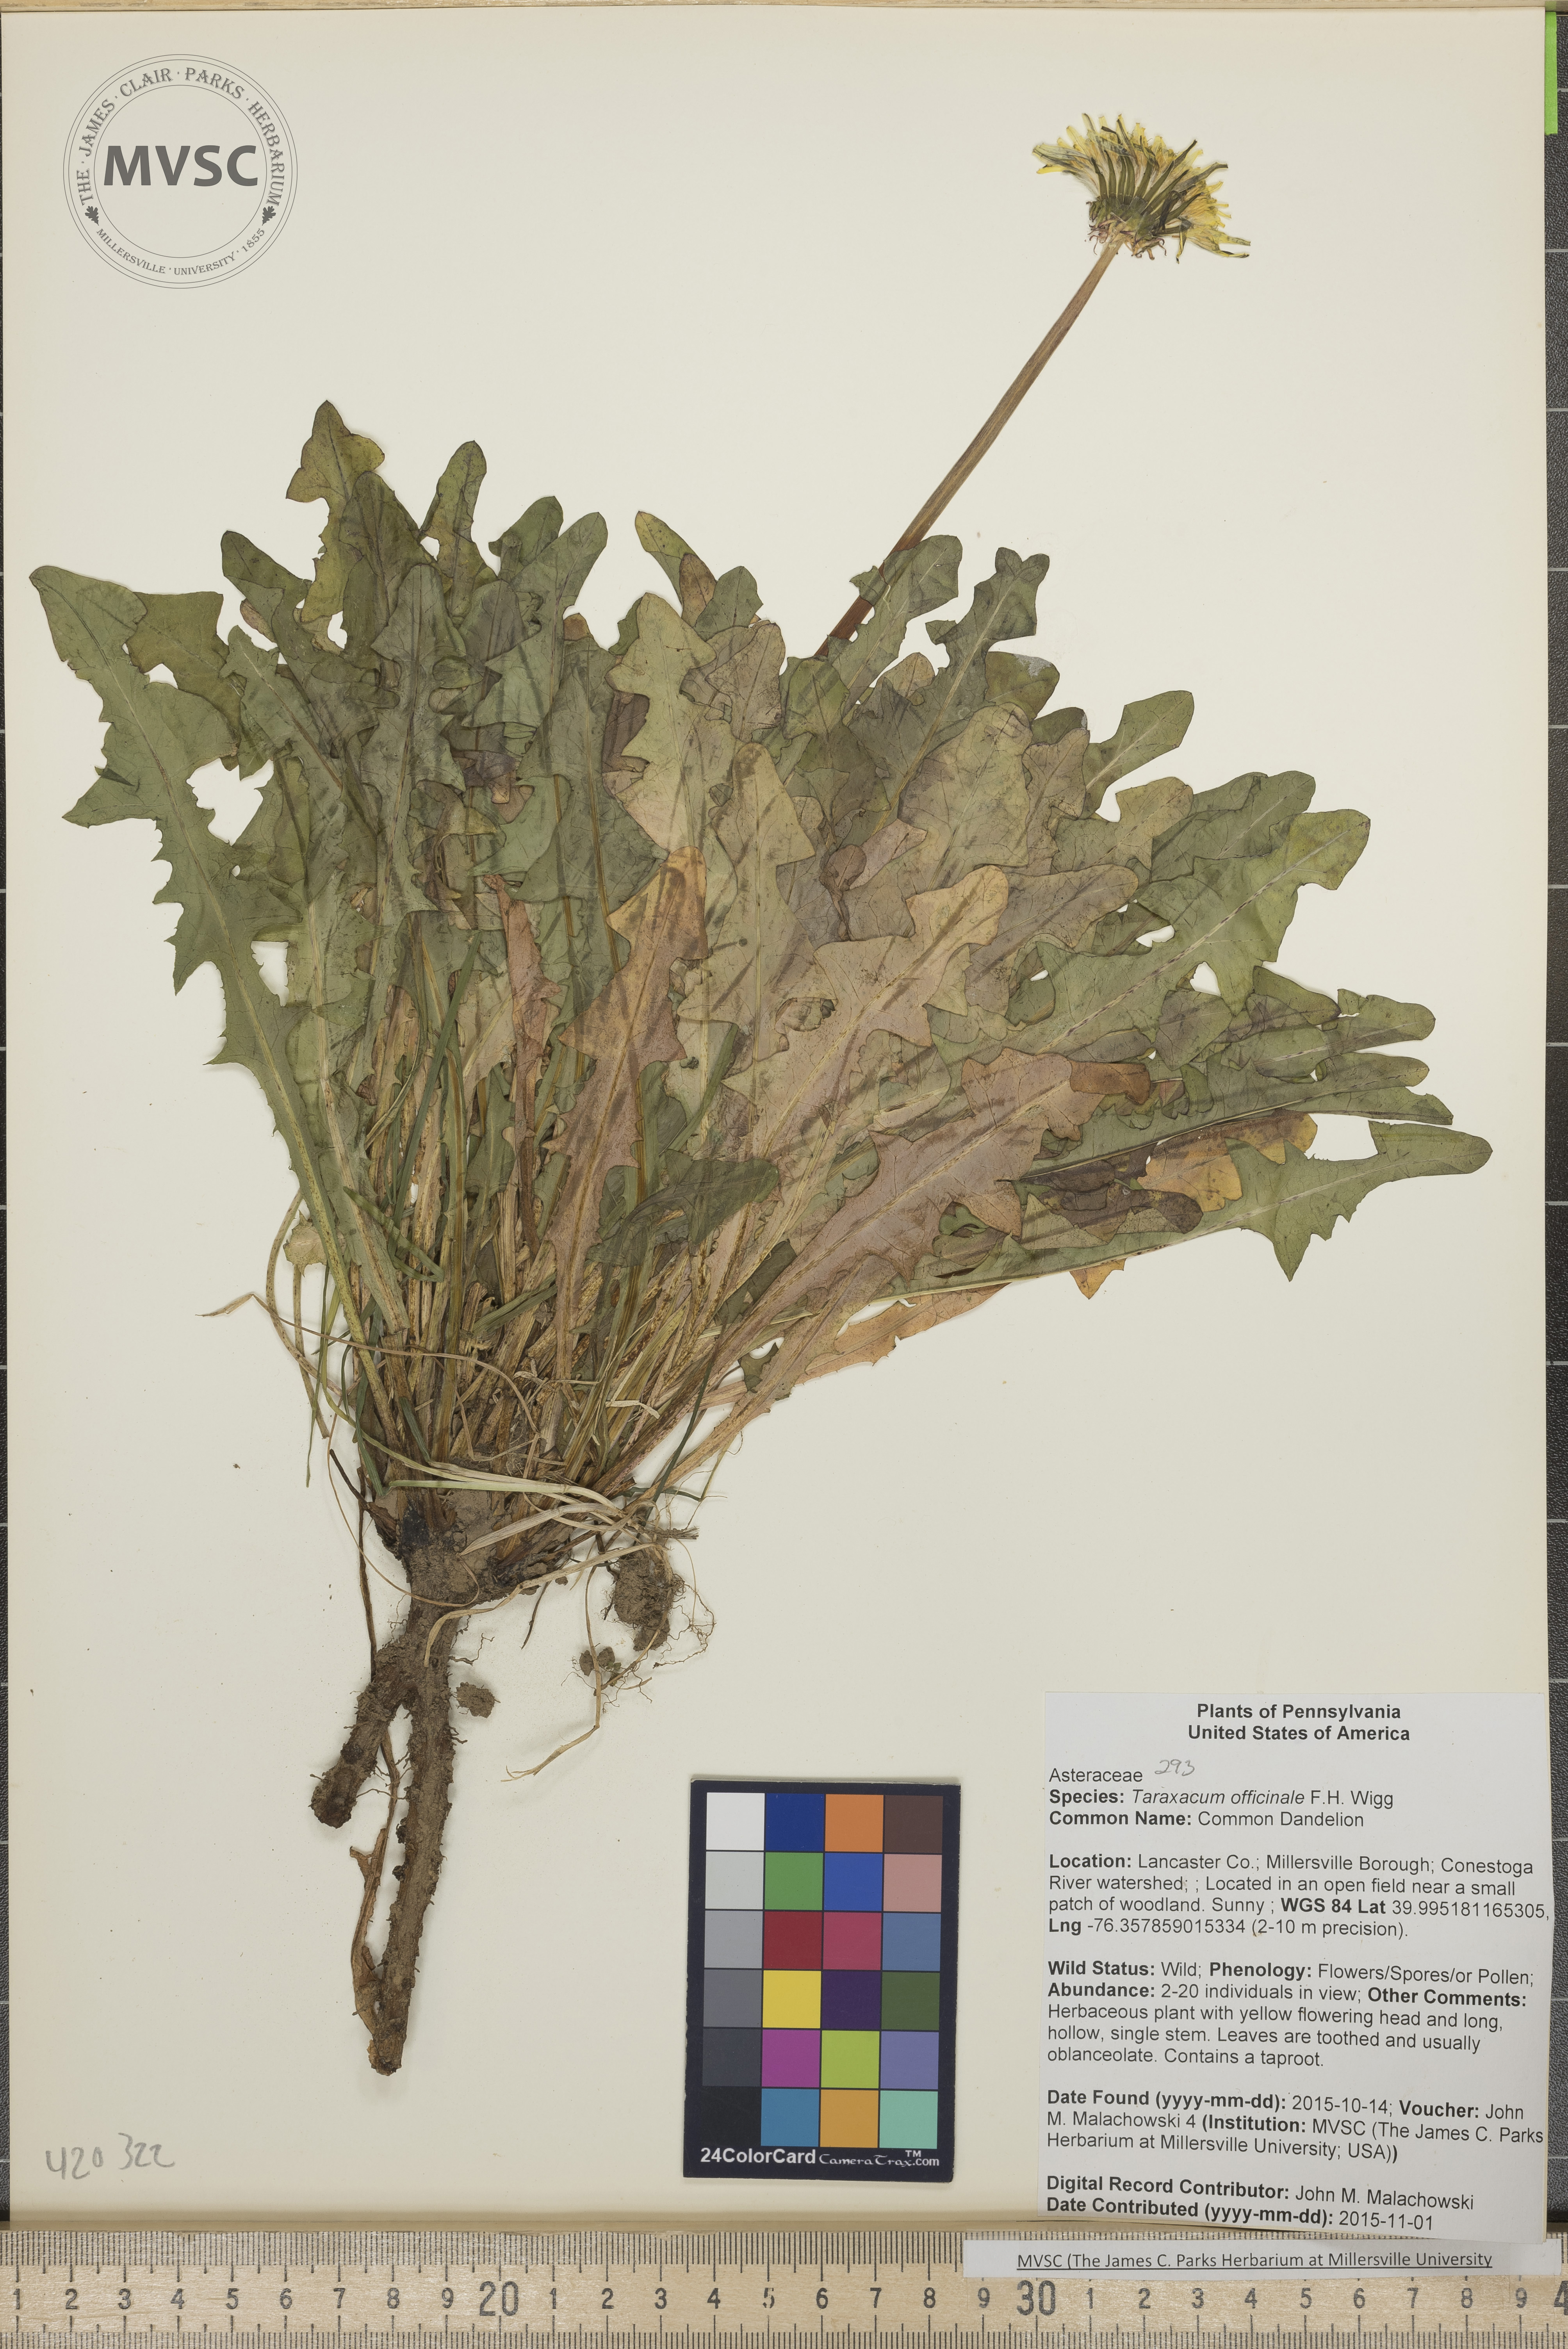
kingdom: Plantae
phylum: Tracheophyta
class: Magnoliopsida
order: Asterales
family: Asteraceae
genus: Taraxacum
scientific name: Taraxacum officinale
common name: Common Dandelion
